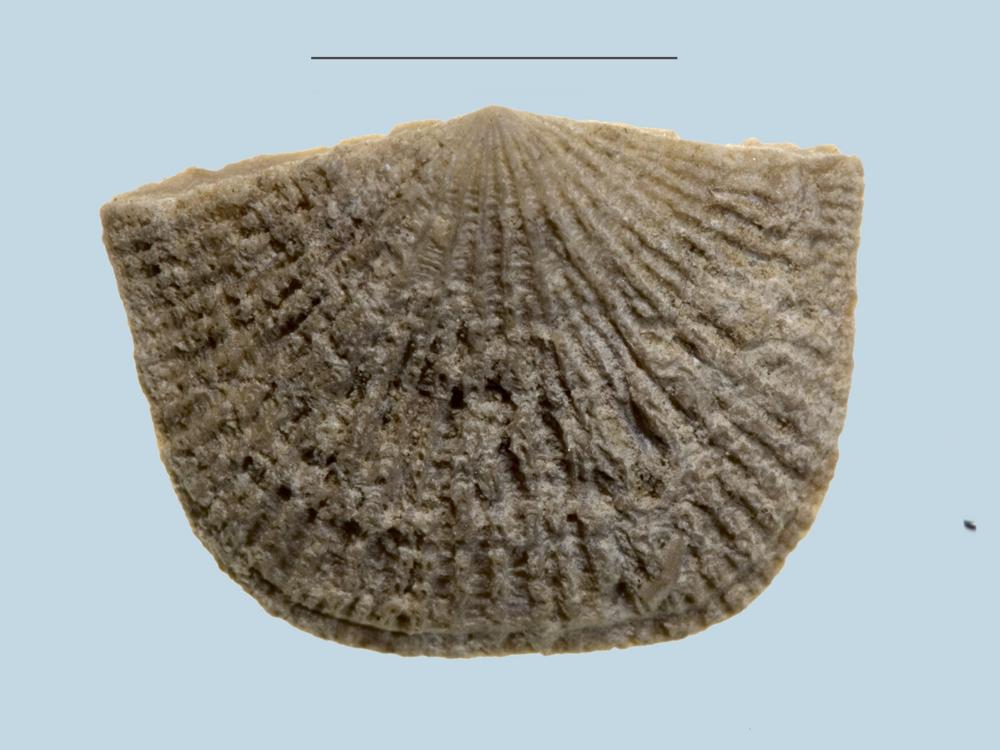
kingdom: Animalia
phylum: Brachiopoda
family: Gonambonitidae
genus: Estlandia
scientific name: Estlandia Orthisina marginata
